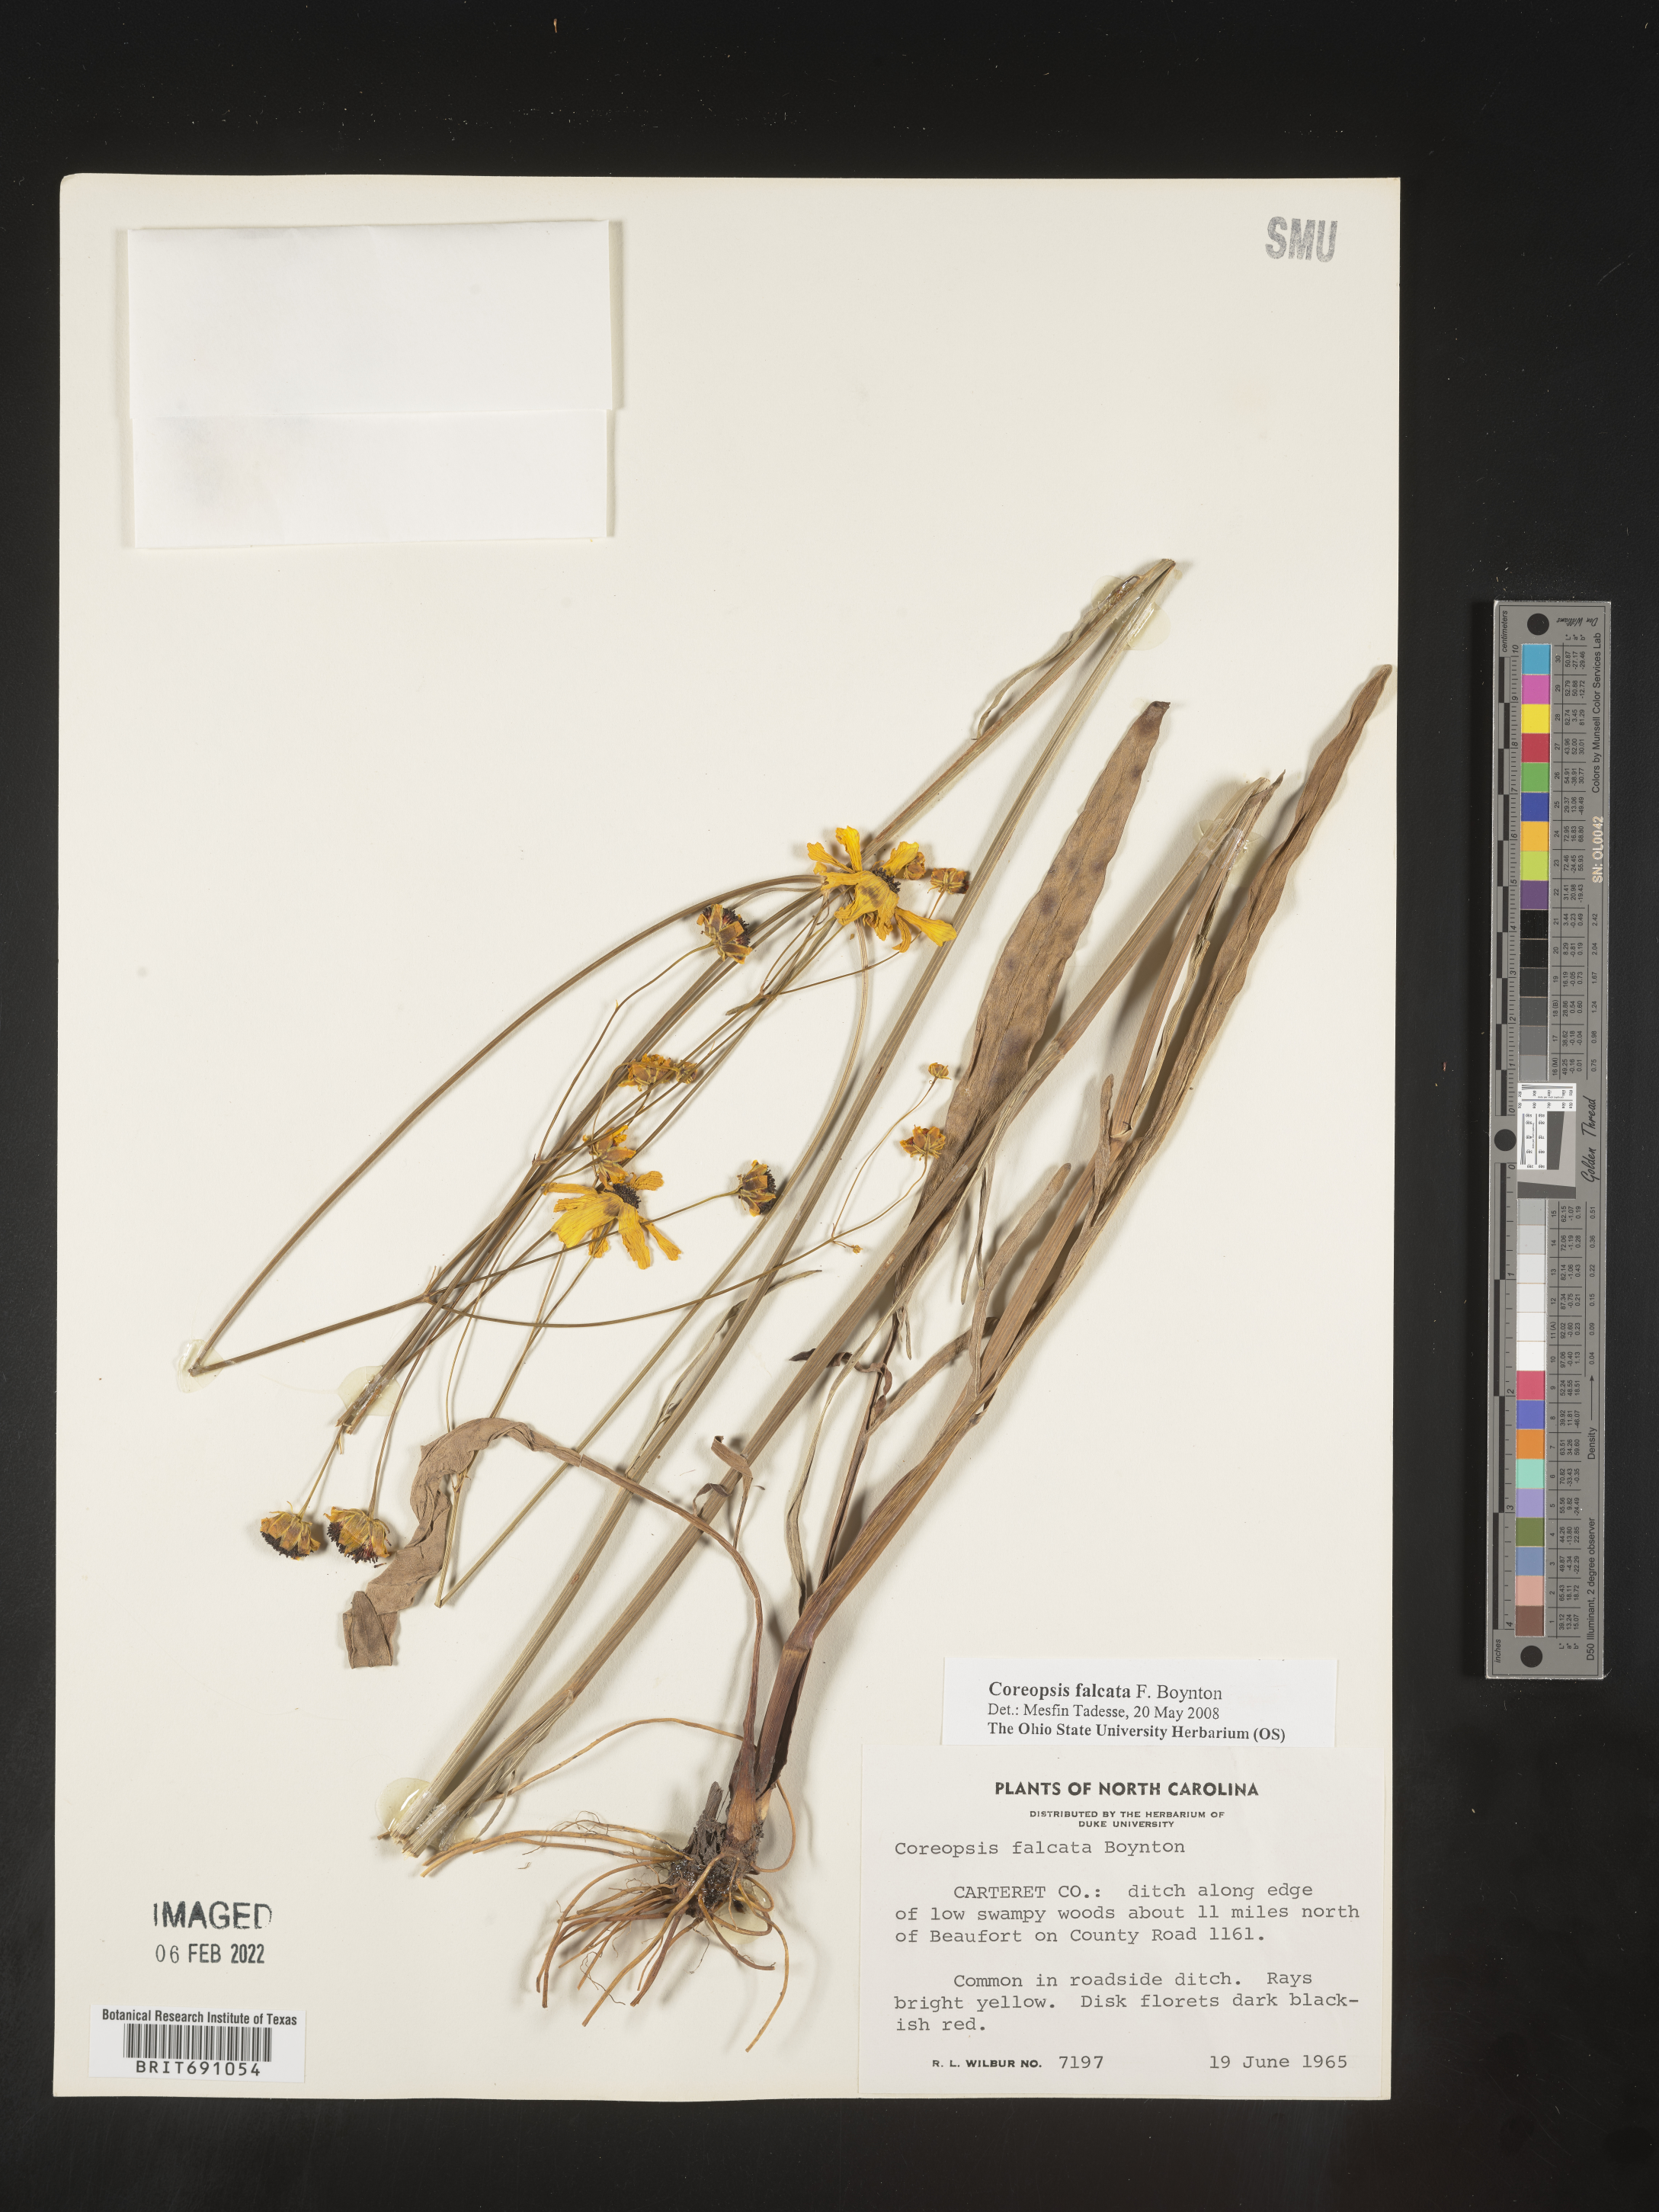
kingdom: Plantae
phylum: Tracheophyta
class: Magnoliopsida
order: Asterales
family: Asteraceae
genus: Coreopsis
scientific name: Coreopsis
